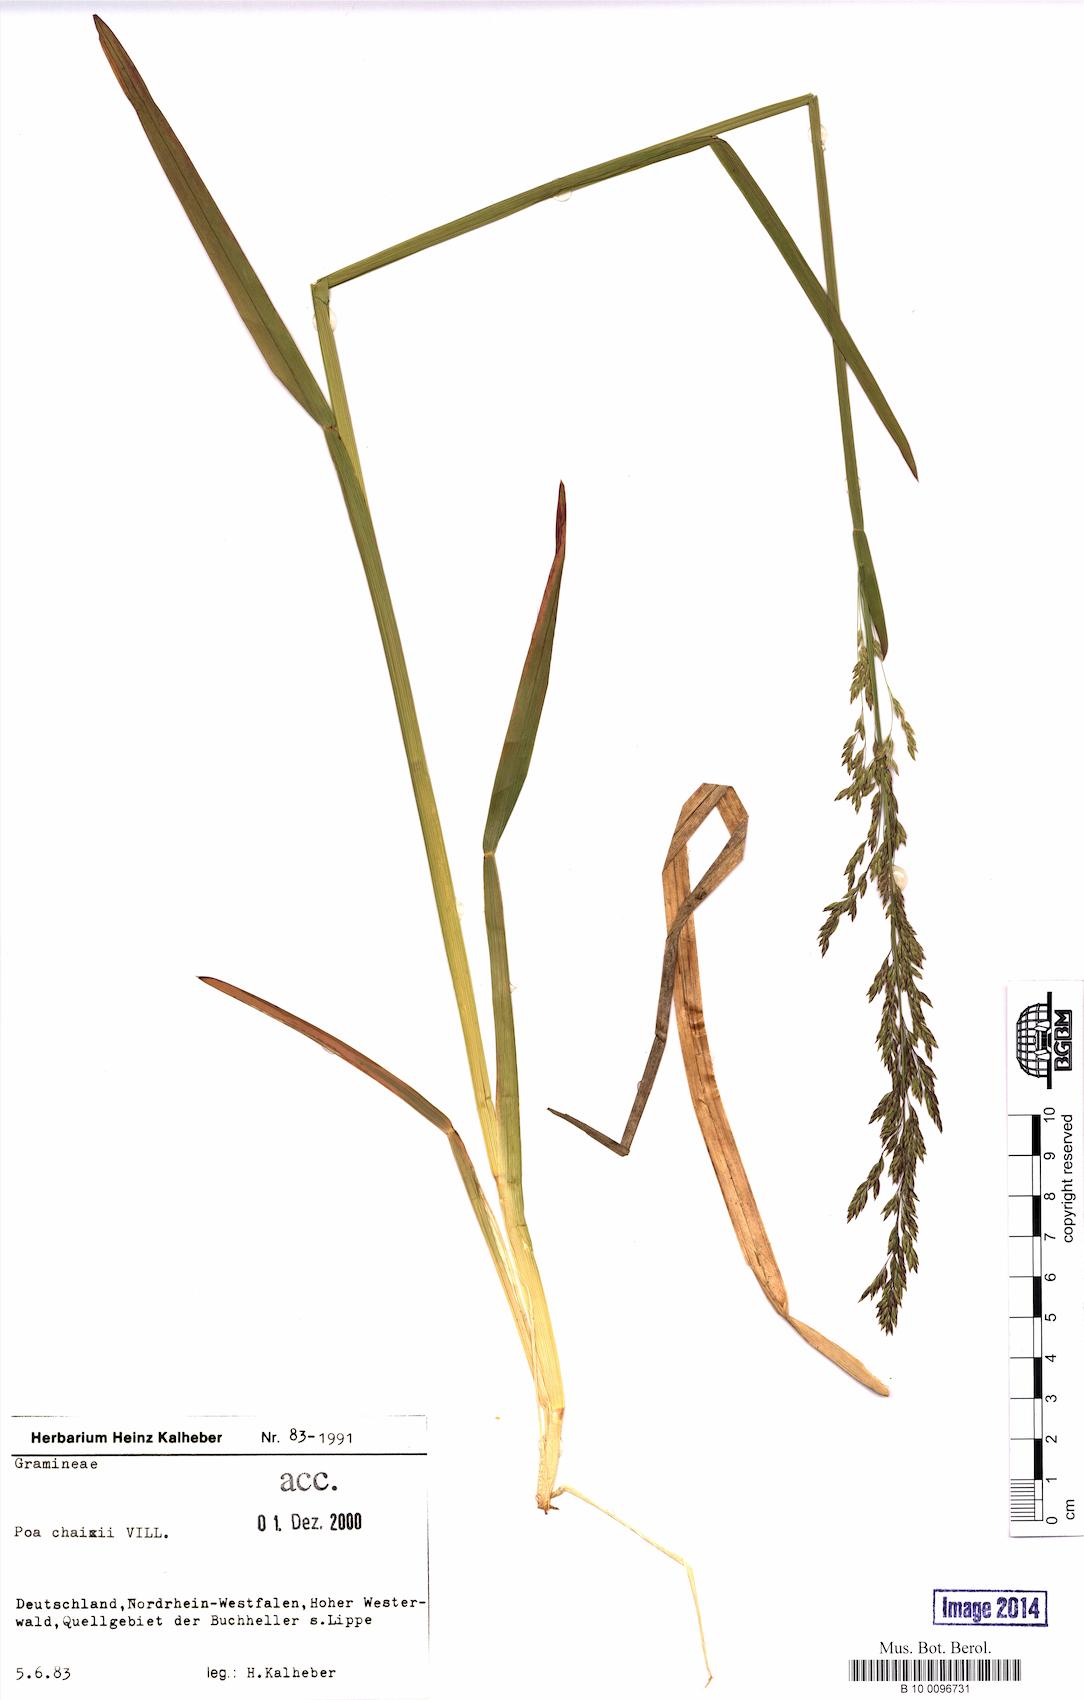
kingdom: Plantae
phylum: Tracheophyta
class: Liliopsida
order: Poales
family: Poaceae
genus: Poa
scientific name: Poa chaixii
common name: Broad-leaved meadow-grass
